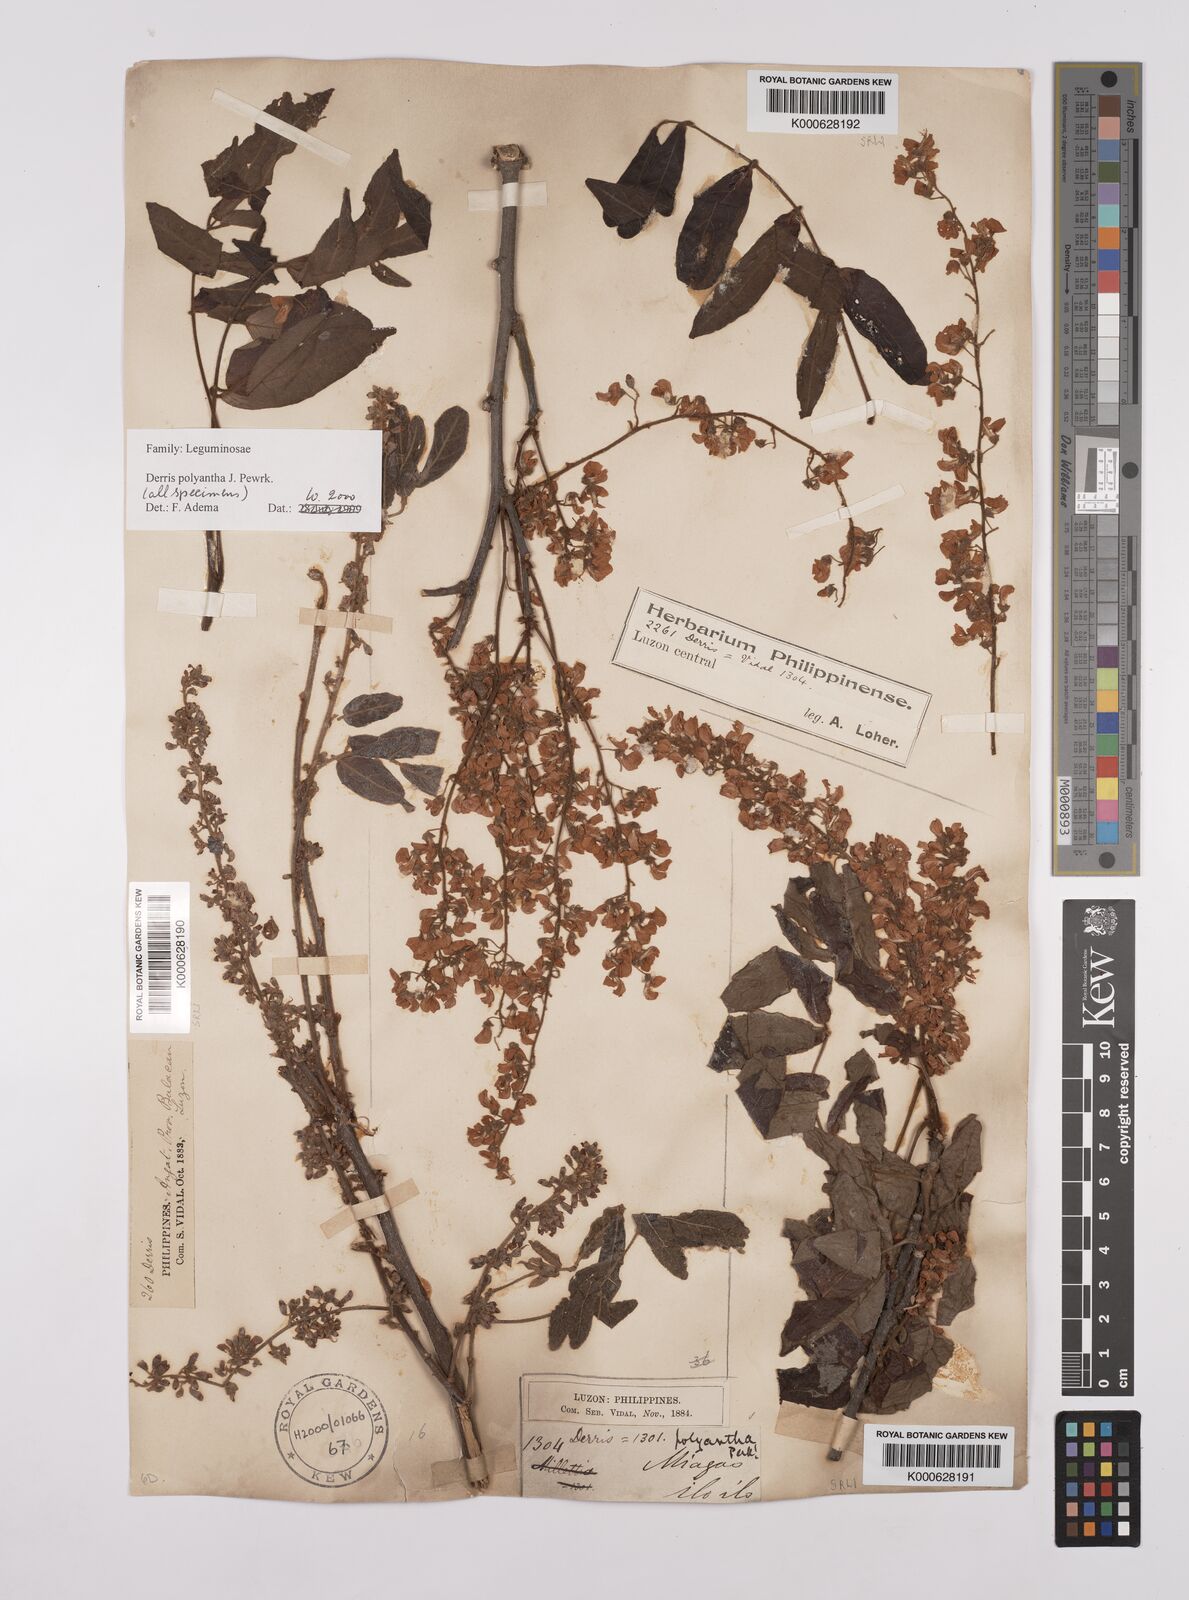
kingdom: Plantae
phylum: Tracheophyta
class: Magnoliopsida
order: Fabales
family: Fabaceae
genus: Derris
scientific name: Derris polyantha
